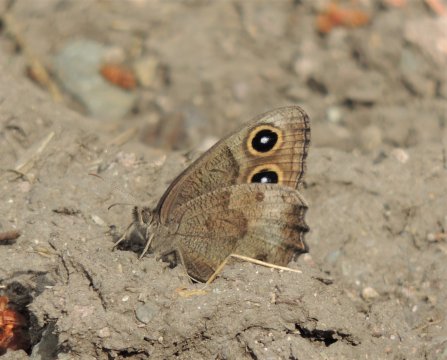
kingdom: Animalia
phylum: Arthropoda
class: Insecta
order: Lepidoptera
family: Nymphalidae
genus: Cercyonis
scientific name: Cercyonis pegala
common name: Common Wood-Nymph
